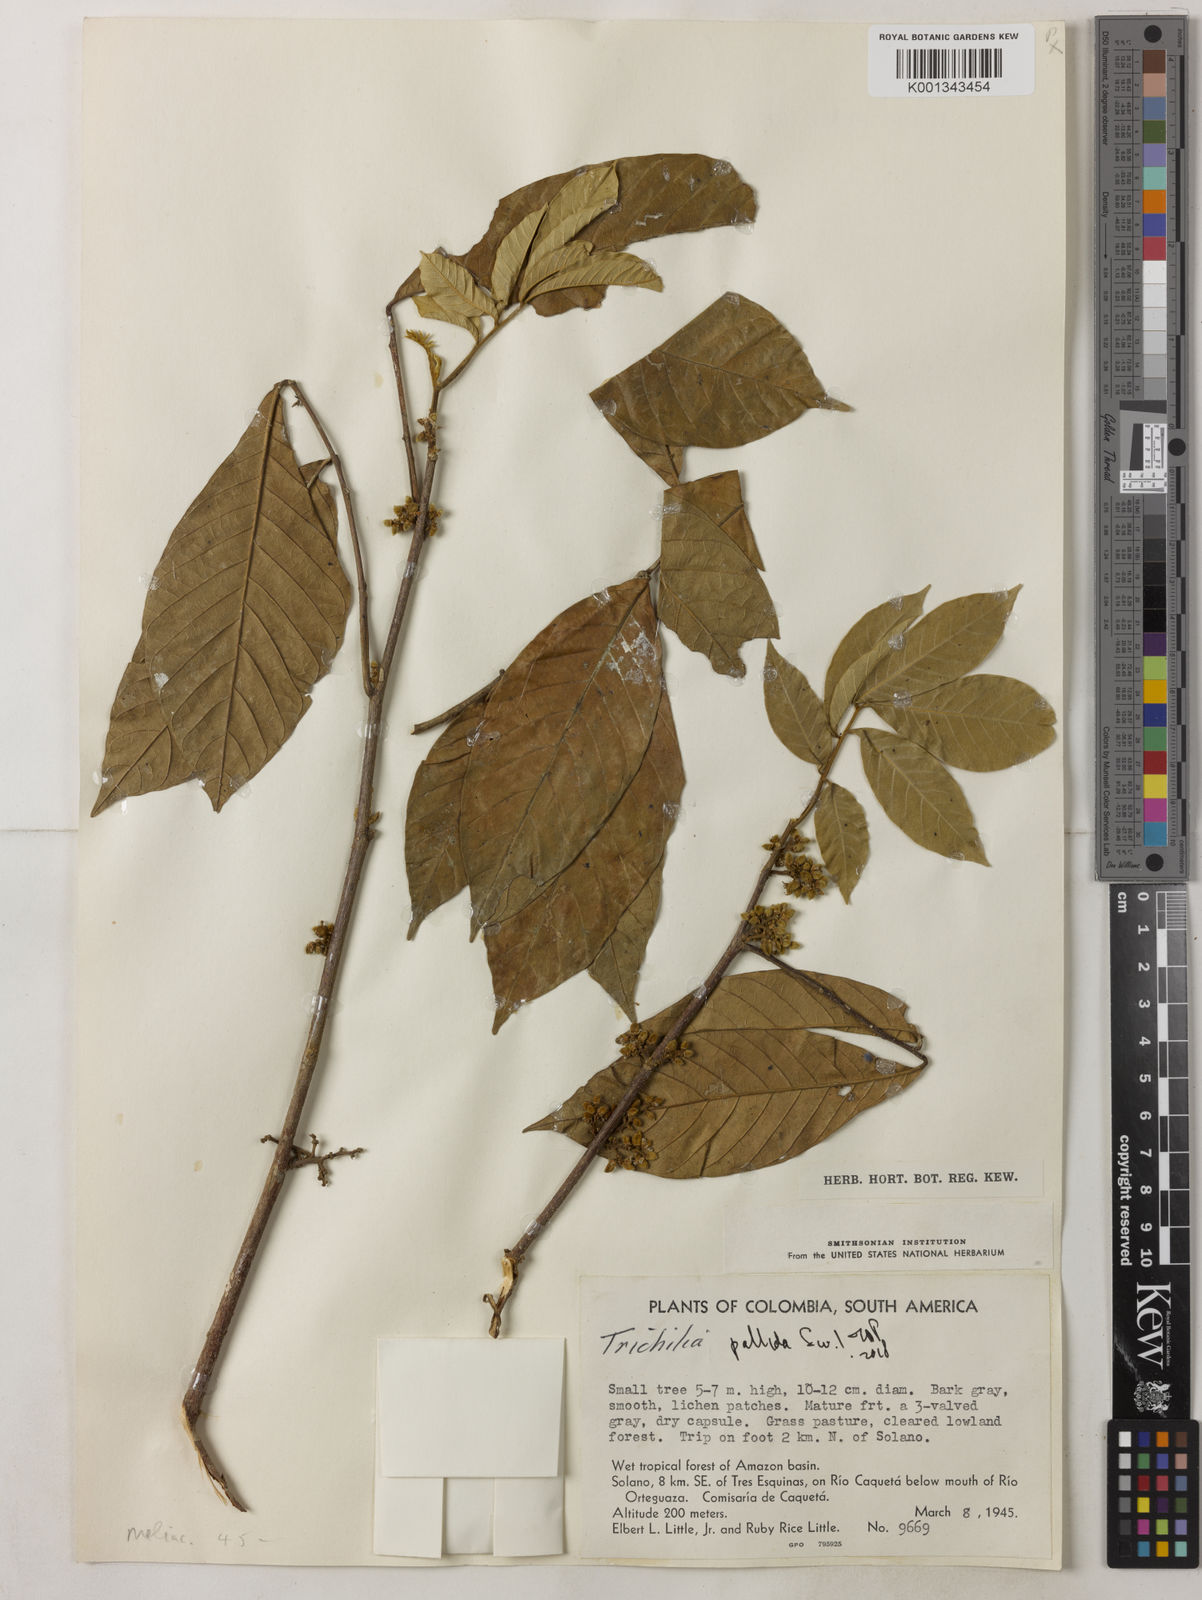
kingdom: Plantae
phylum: Tracheophyta
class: Magnoliopsida
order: Sapindales
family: Meliaceae
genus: Trichilia
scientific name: Trichilia pallida
